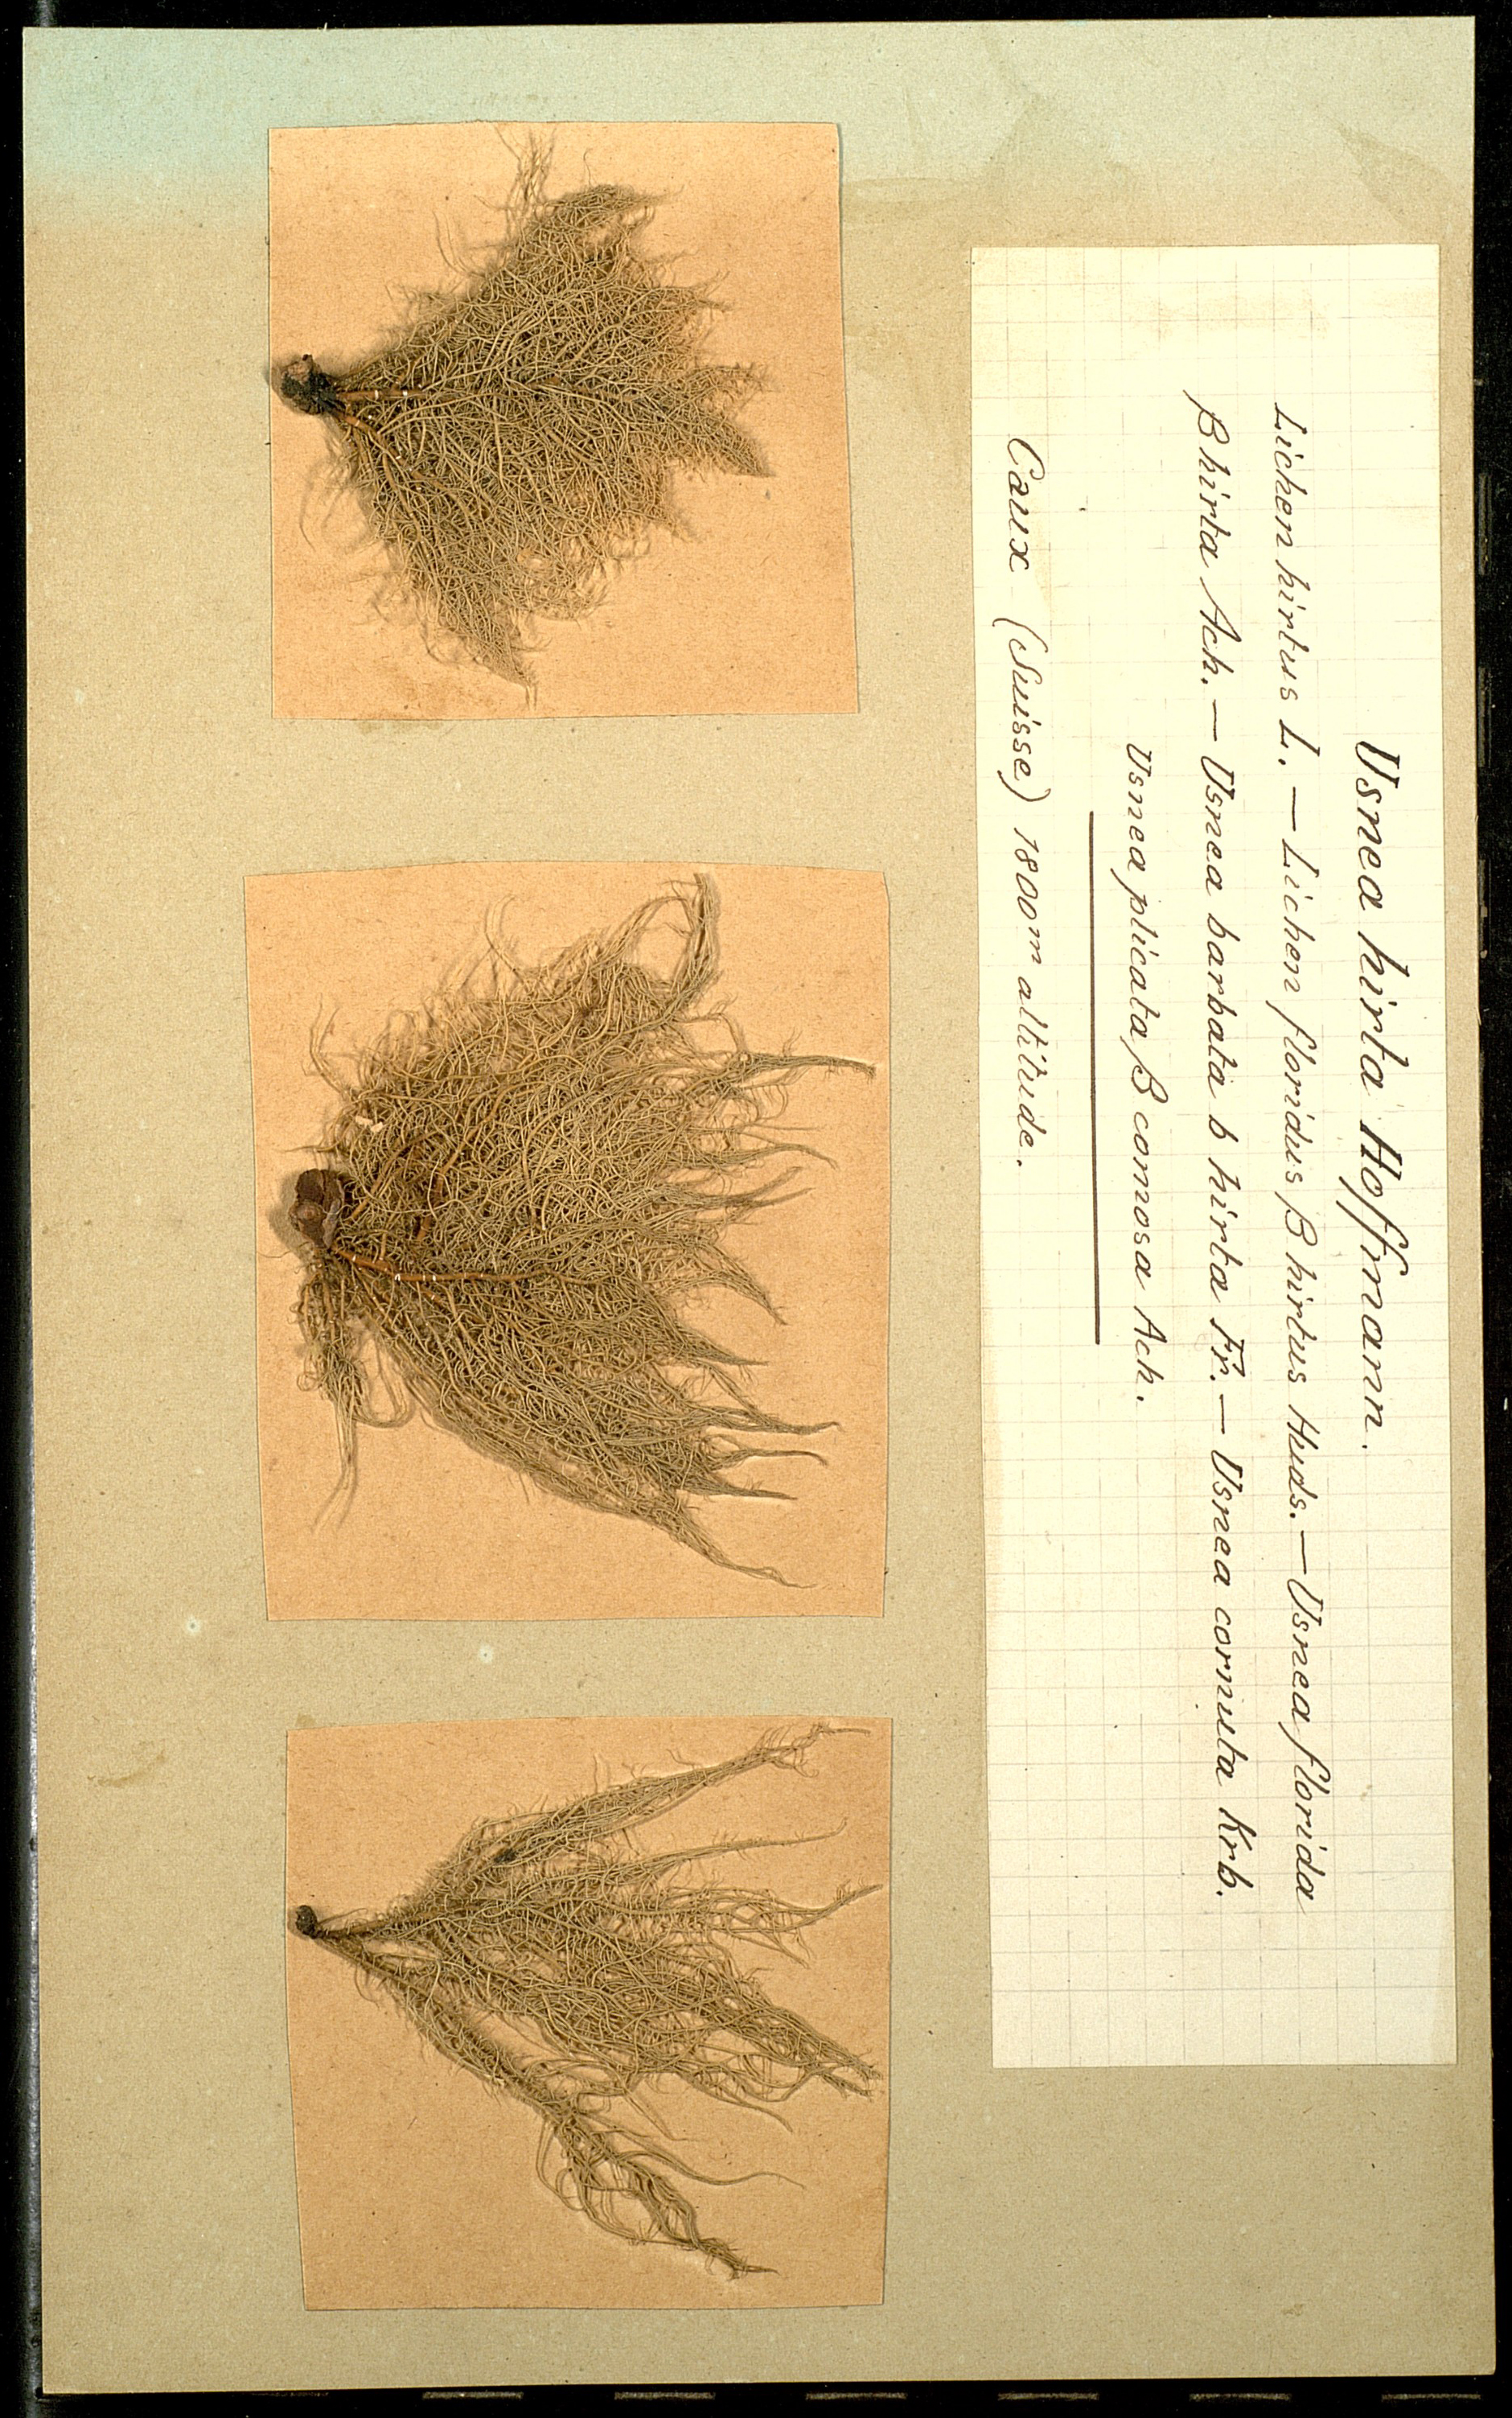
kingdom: Fungi
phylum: Ascomycota
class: Lecanoromycetes
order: Lecanorales
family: Parmeliaceae
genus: Usnea
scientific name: Usnea hirta
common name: Bristly beard lichen
